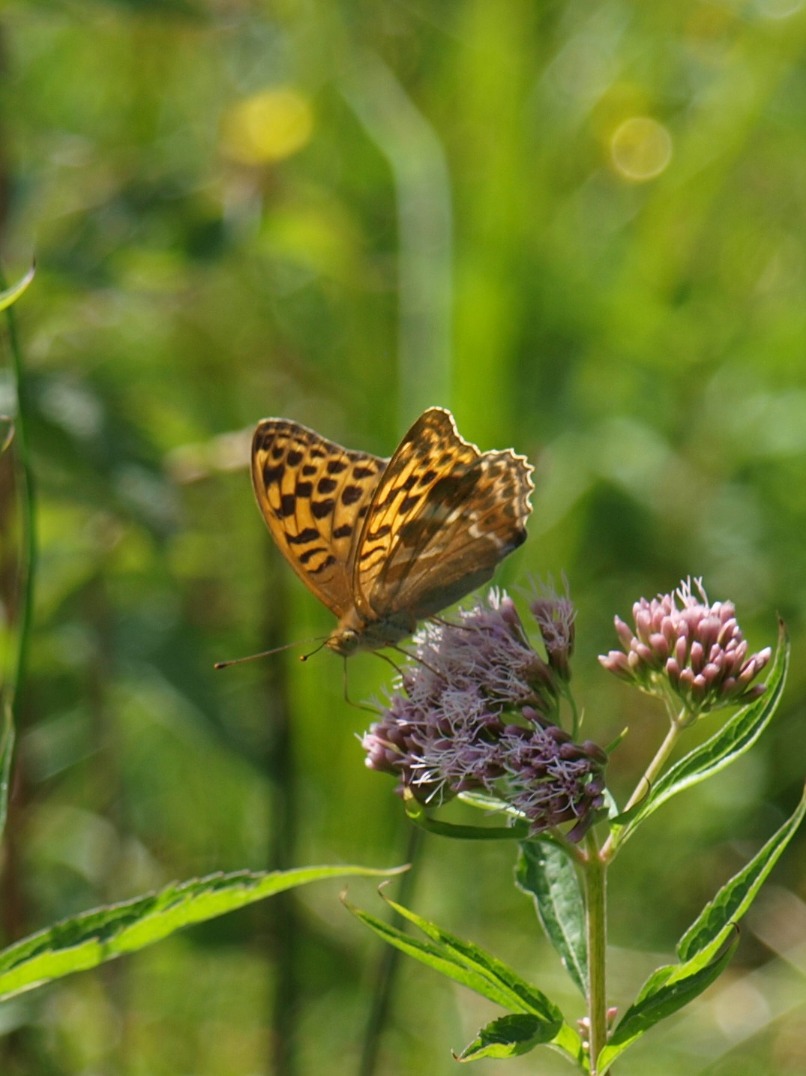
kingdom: Animalia
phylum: Arthropoda
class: Insecta
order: Lepidoptera
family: Nymphalidae
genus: Argynnis
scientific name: Argynnis paphia
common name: Kejserkåbe
